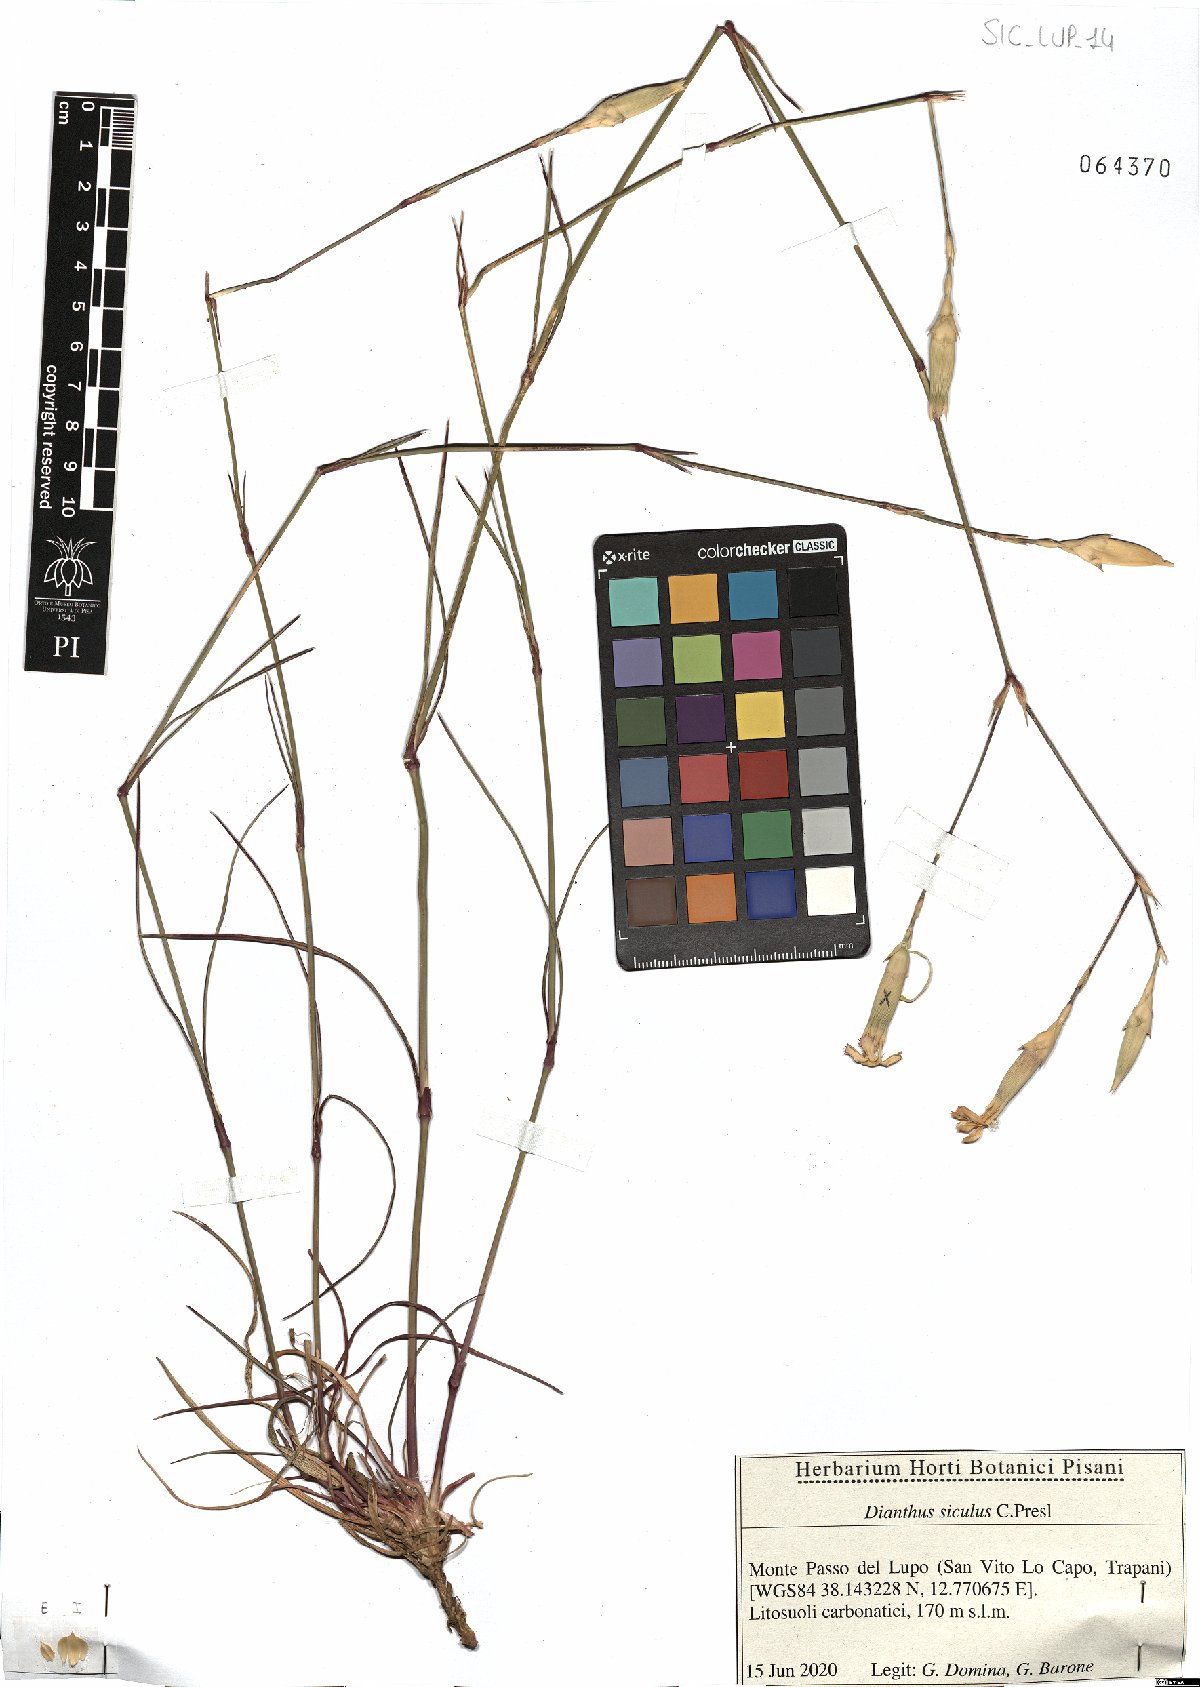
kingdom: Plantae
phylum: Tracheophyta
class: Magnoliopsida
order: Caryophyllales
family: Caryophyllaceae
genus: Dianthus
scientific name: Dianthus siculus
